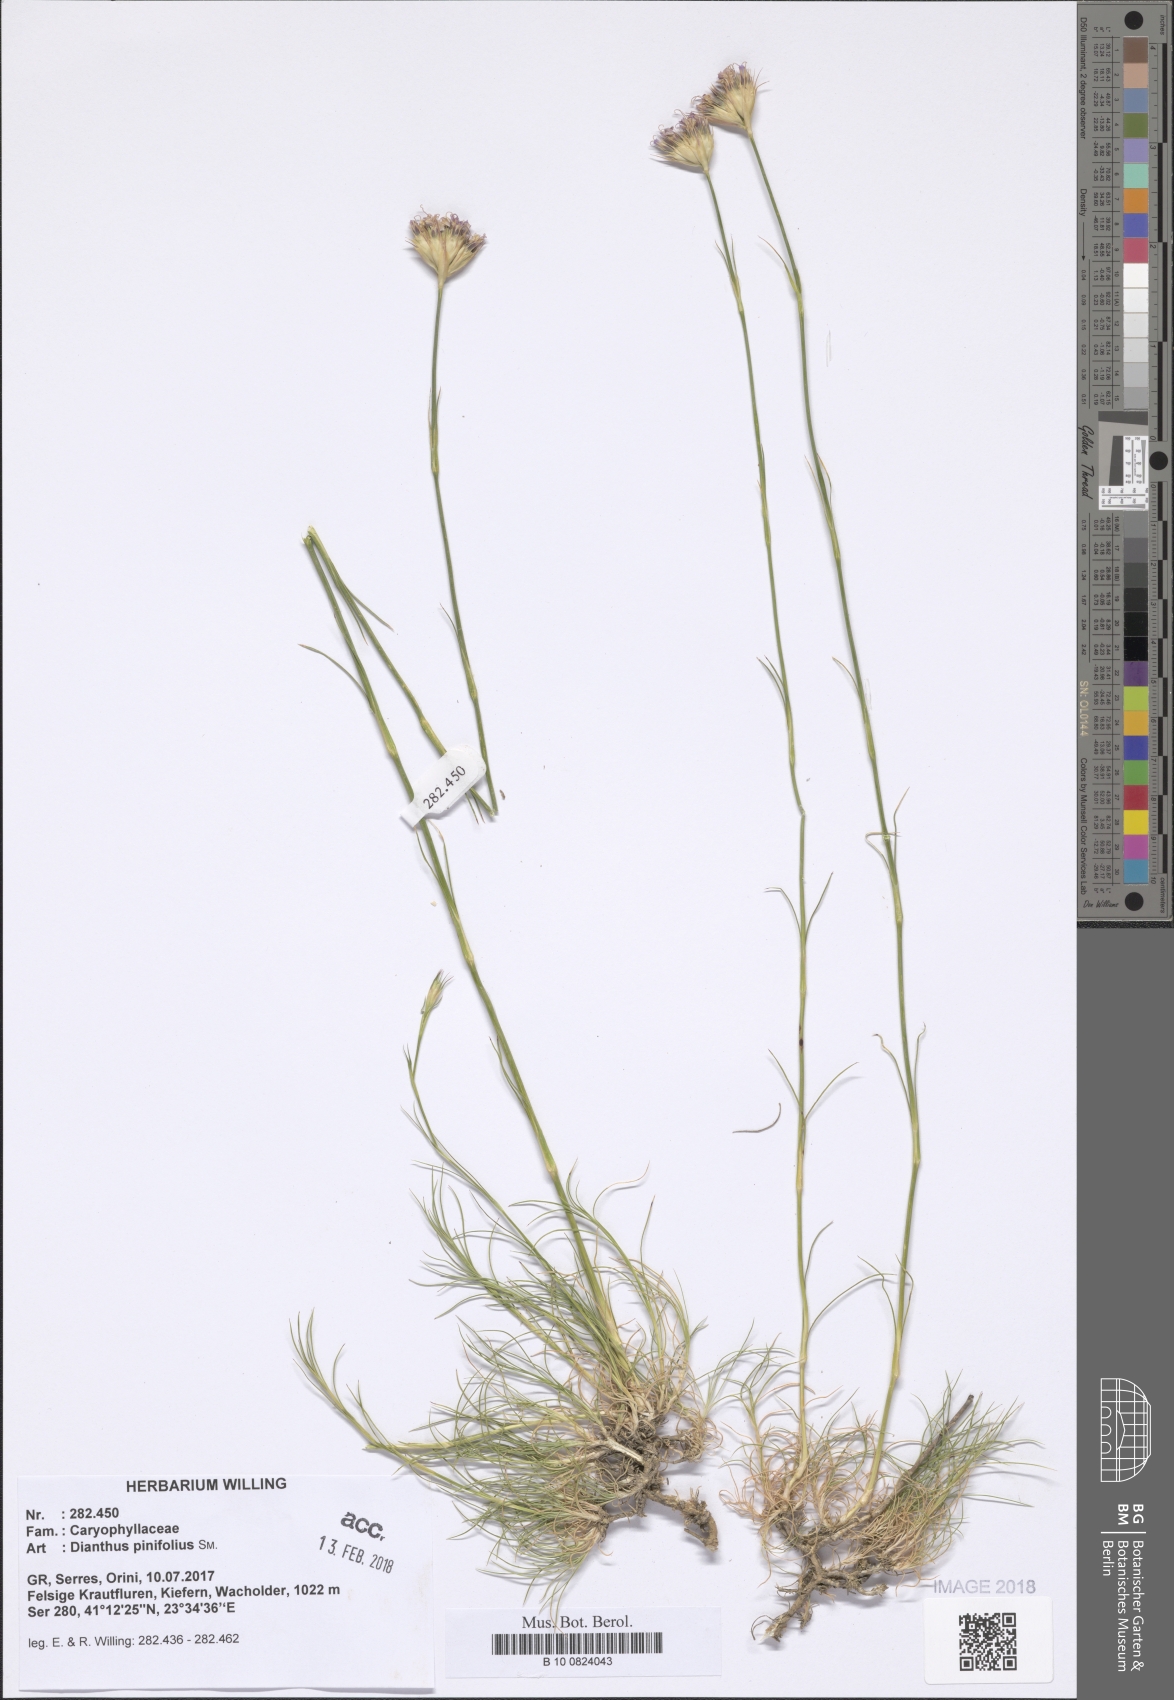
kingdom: Plantae
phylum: Tracheophyta
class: Magnoliopsida
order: Caryophyllales
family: Caryophyllaceae
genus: Dianthus
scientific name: Dianthus pinifolius
